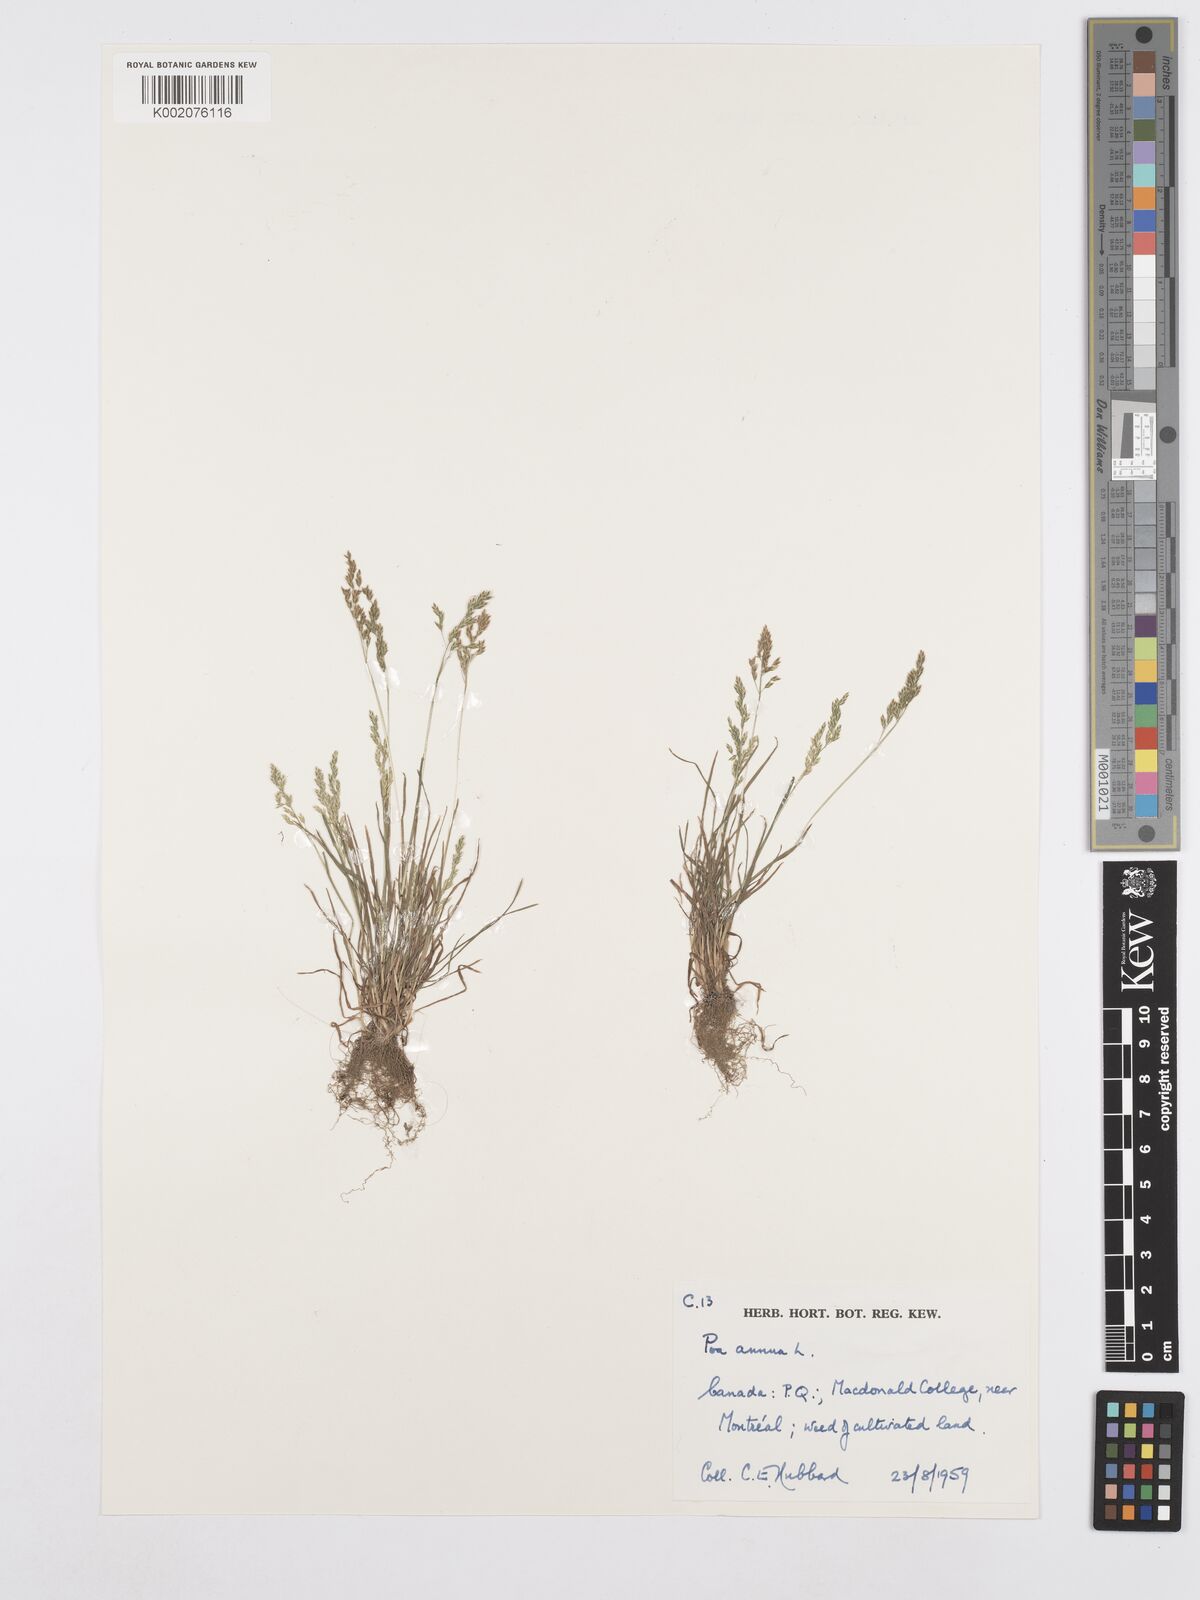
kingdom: Plantae
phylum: Tracheophyta
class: Liliopsida
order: Poales
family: Poaceae
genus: Poa
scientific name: Poa annua
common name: Annual bluegrass
